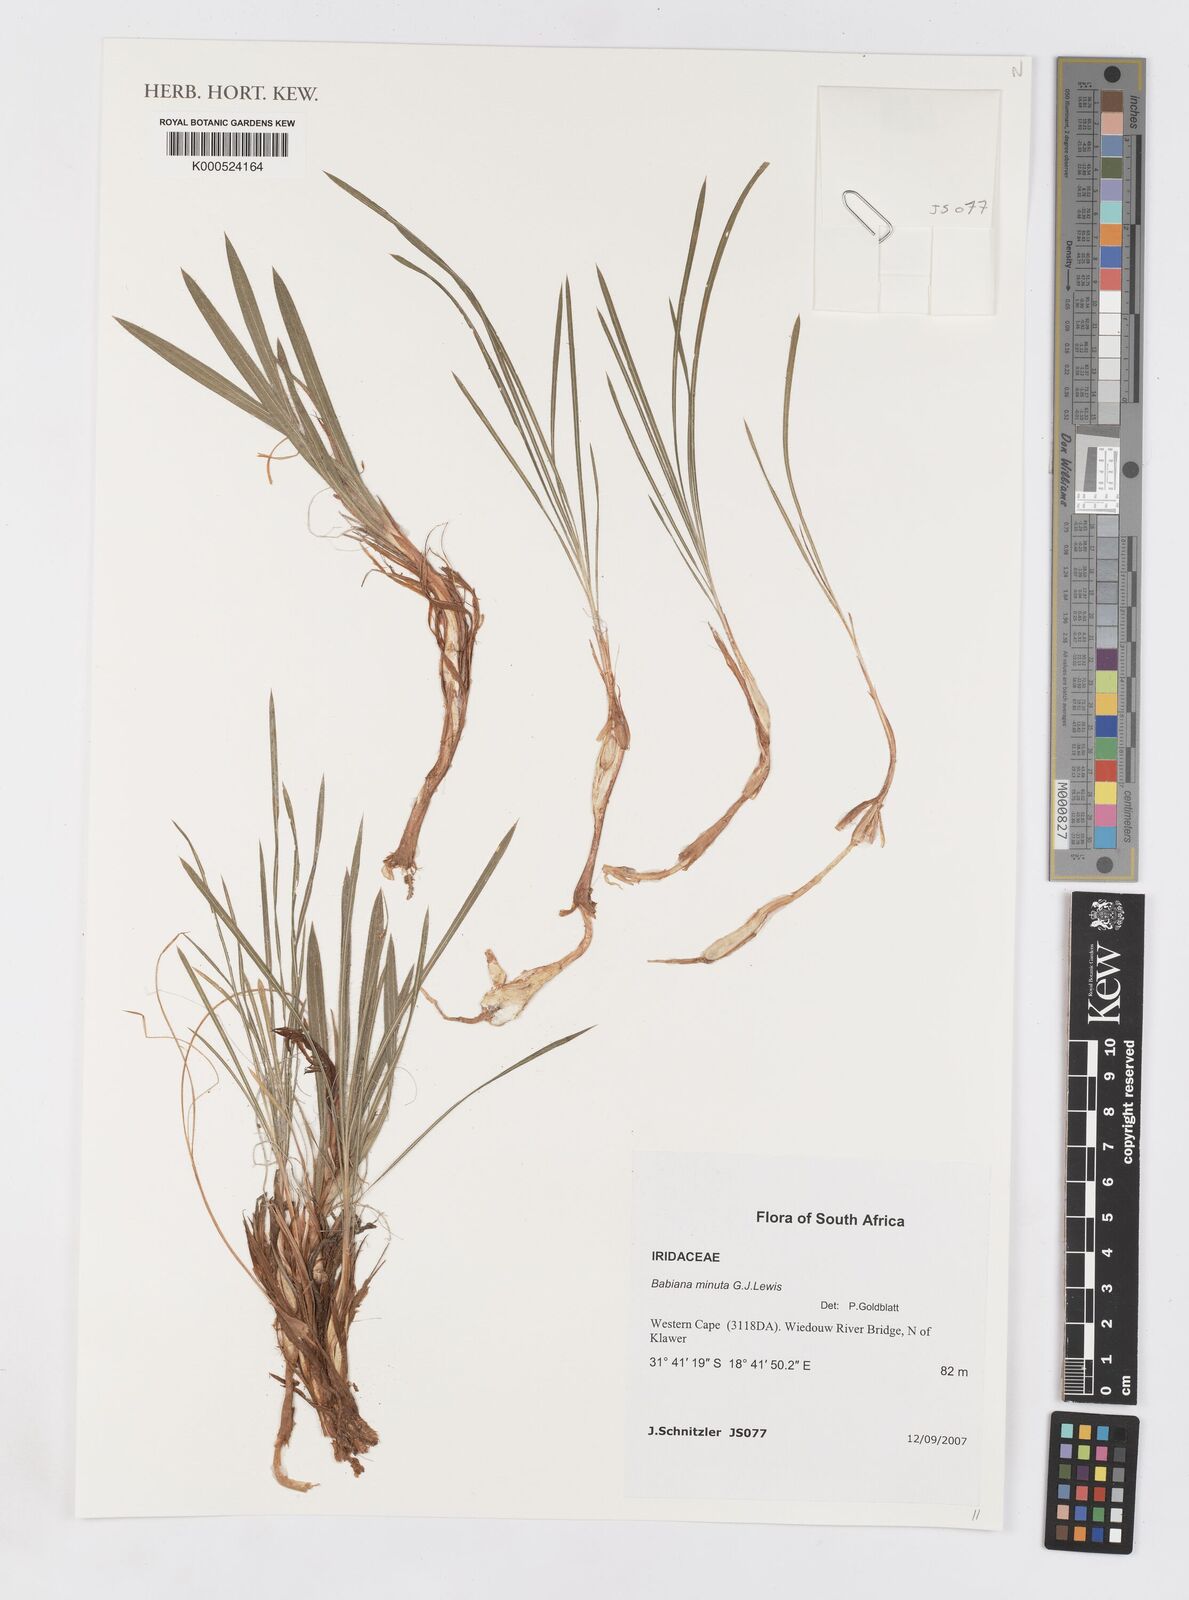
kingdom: Plantae
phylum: Tracheophyta
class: Liliopsida
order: Asparagales
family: Iridaceae
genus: Babiana
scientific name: Babiana minuta
